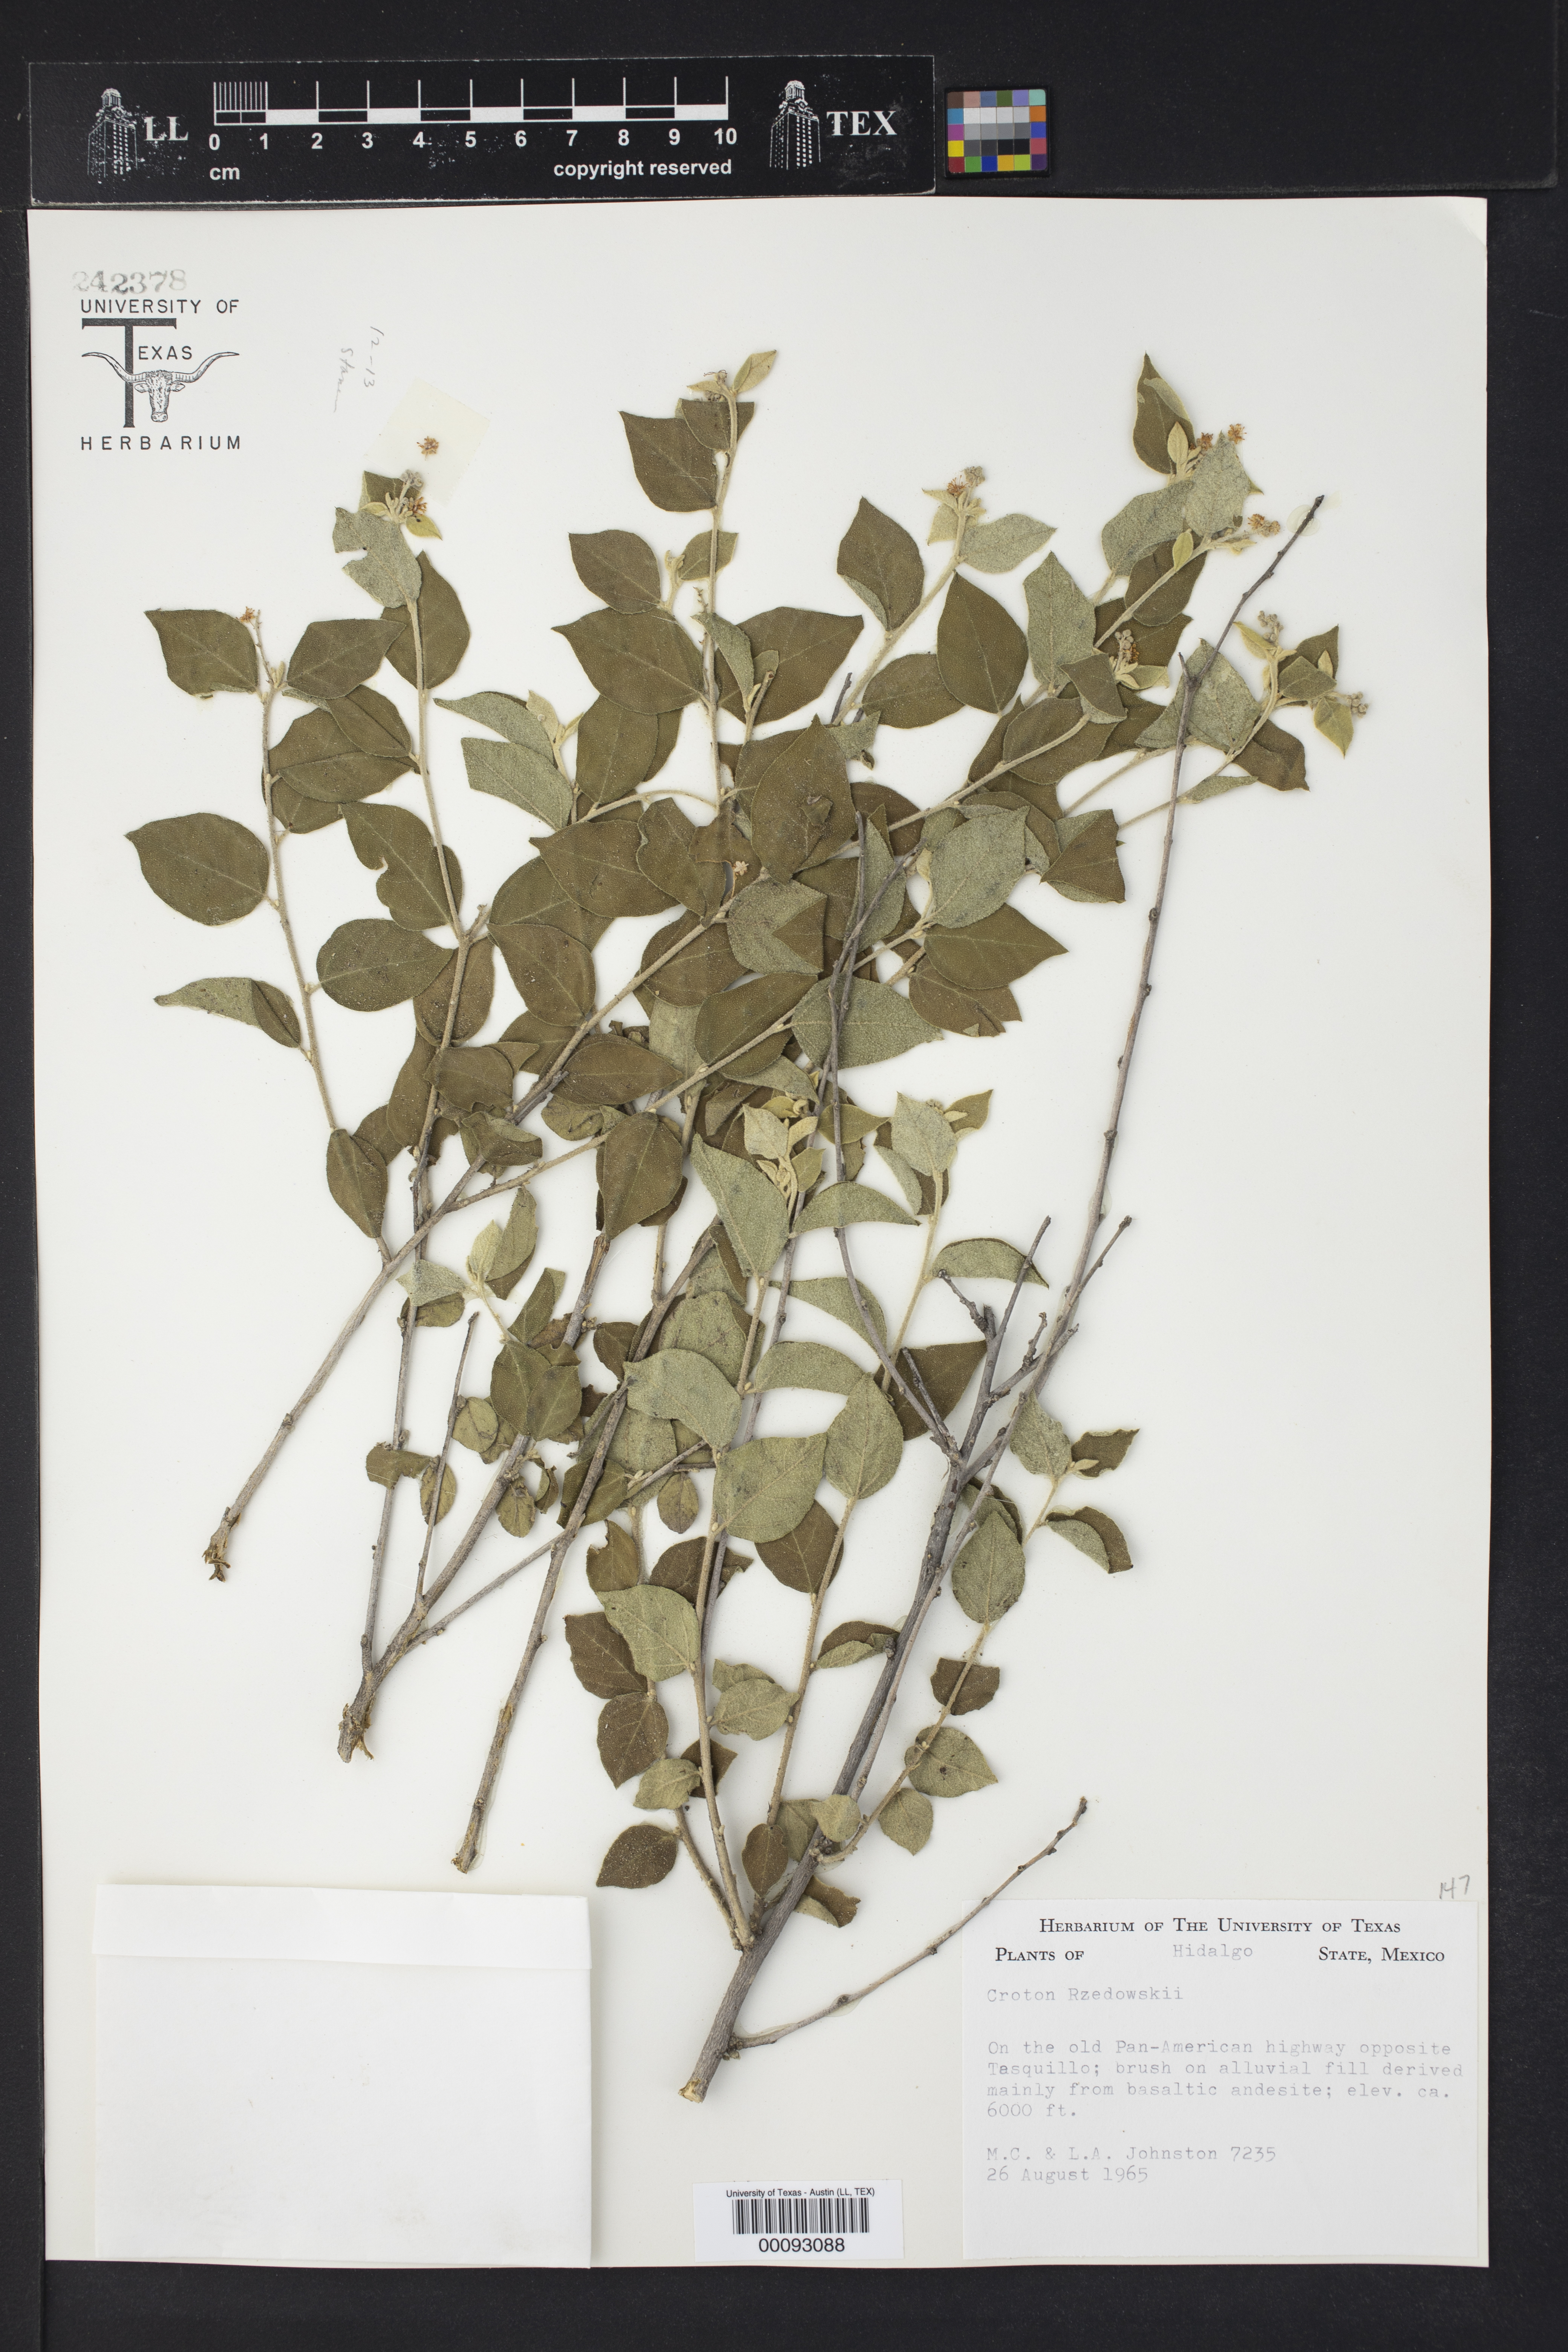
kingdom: Plantae
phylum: Tracheophyta
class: Magnoliopsida
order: Malpighiales
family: Euphorbiaceae
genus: Croton
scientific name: Croton mazapensis
